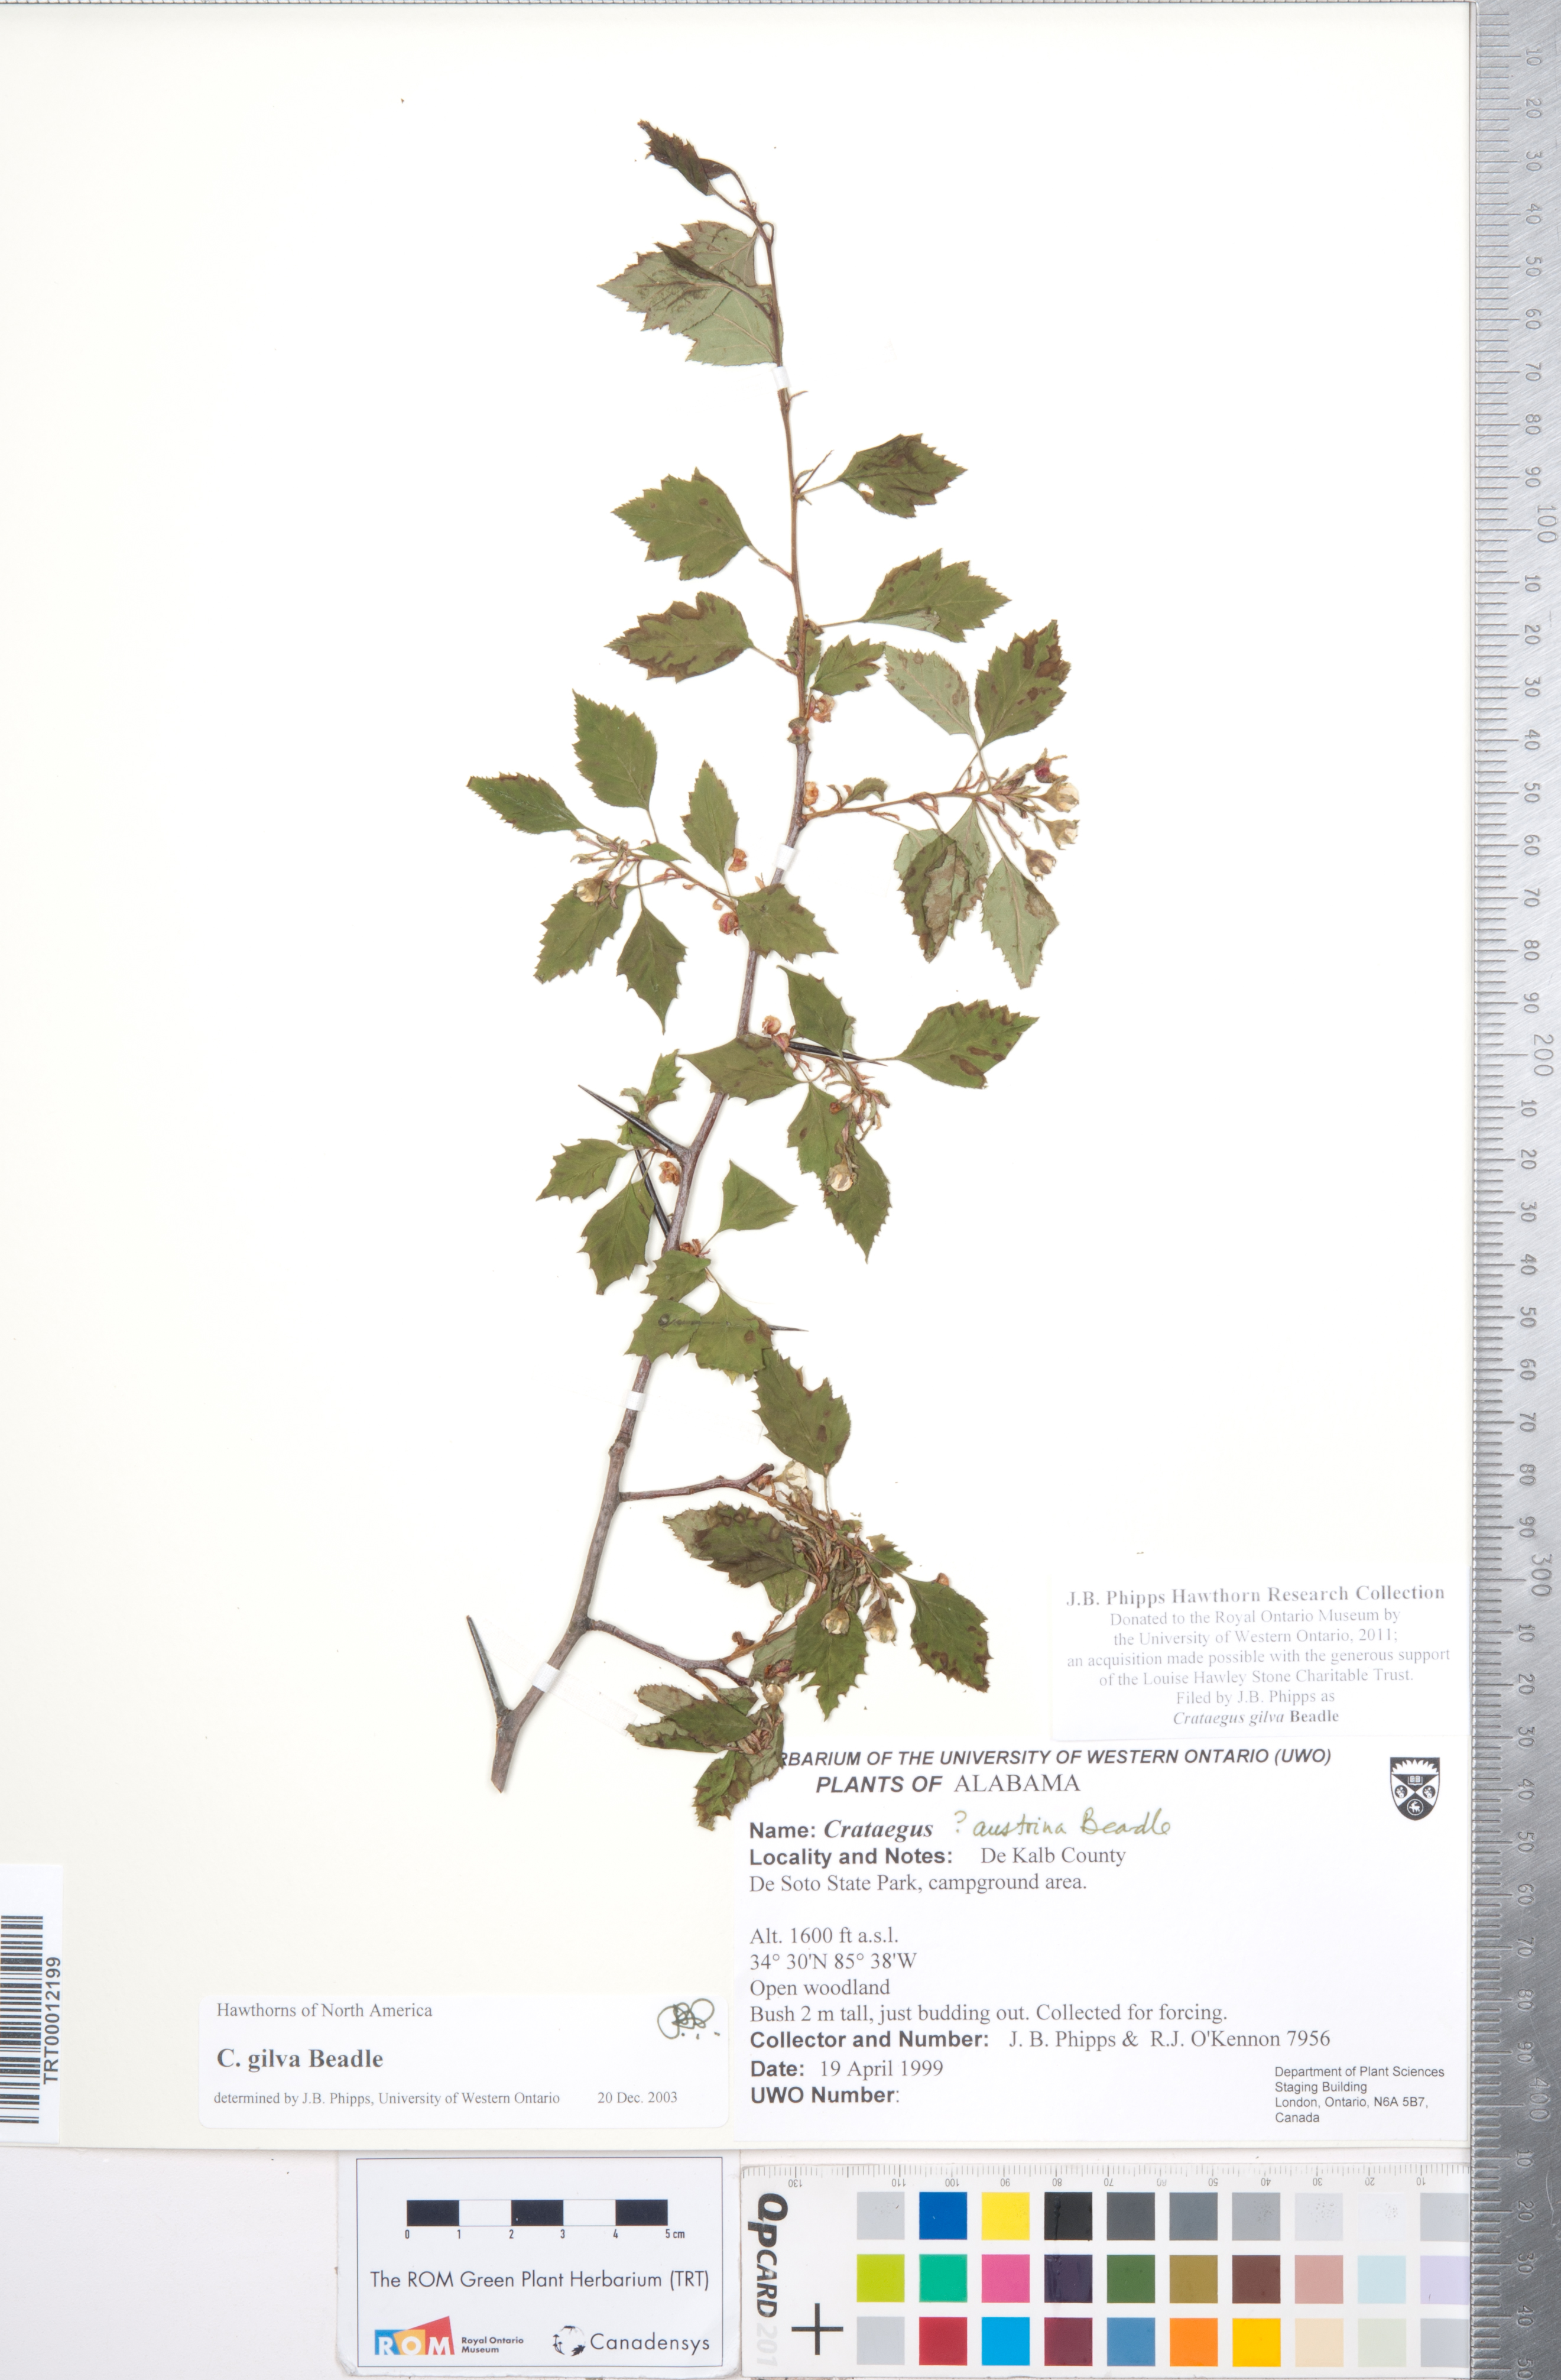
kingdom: Plantae
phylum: Tracheophyta
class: Magnoliopsida
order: Rosales
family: Rosaceae
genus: Crataegus
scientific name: Crataegus sargentii
